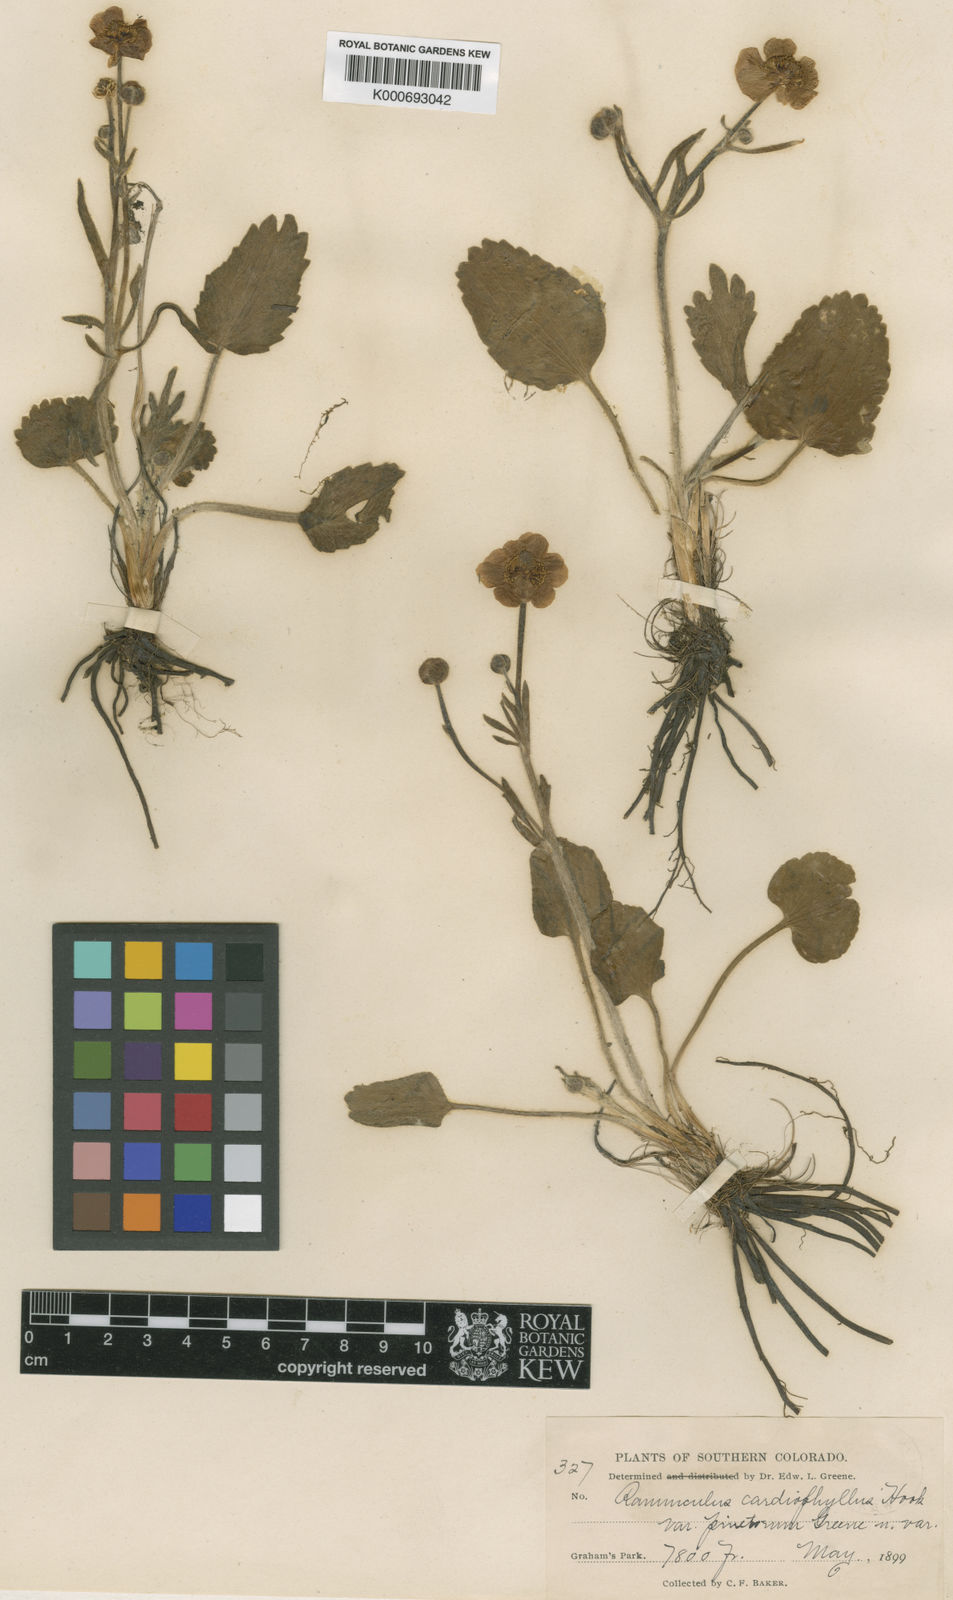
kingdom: Plantae
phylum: Tracheophyta
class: Magnoliopsida
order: Ranunculales
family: Ranunculaceae
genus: Ranunculus
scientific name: Ranunculus cardiophyllus
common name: Heart-leaved buttercup
